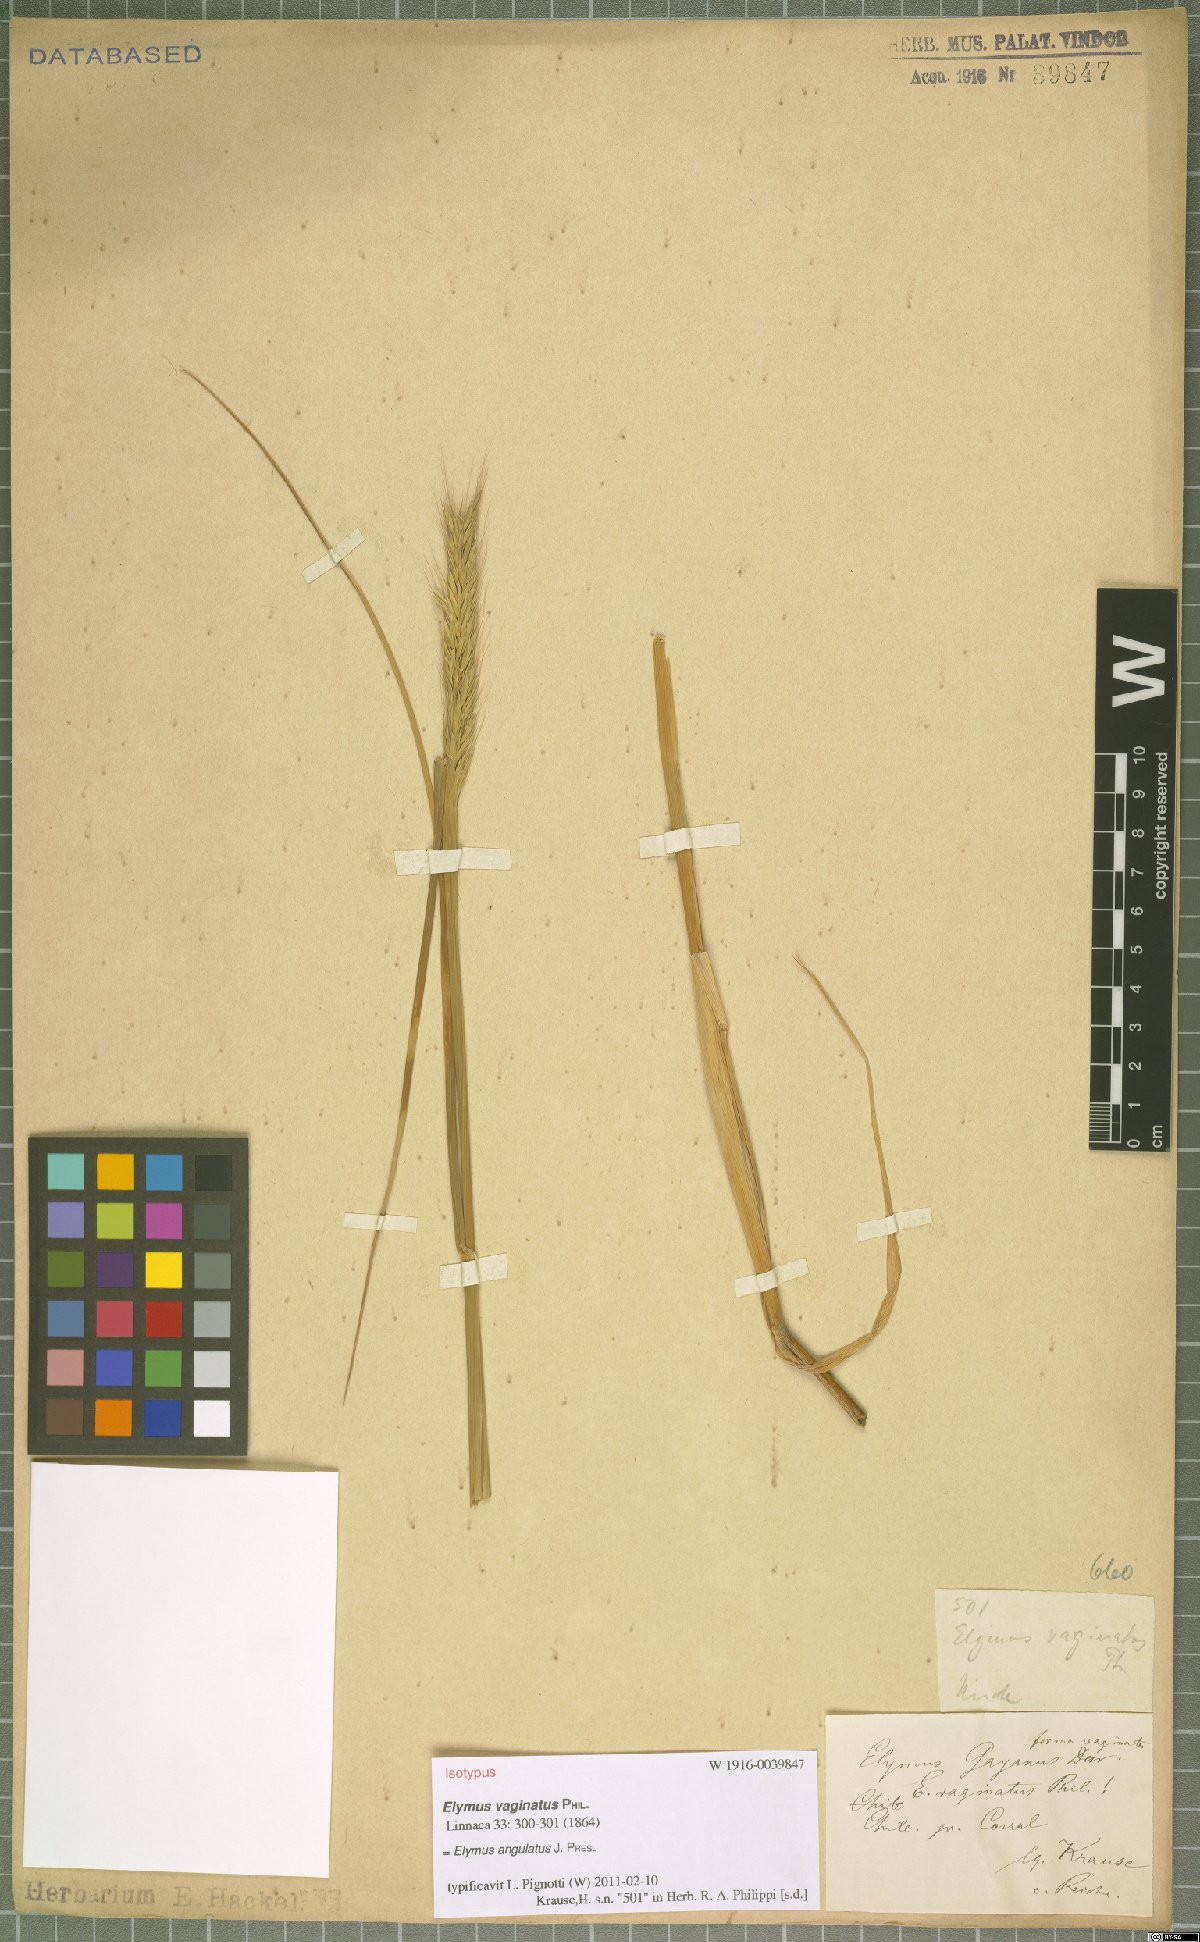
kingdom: Plantae
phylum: Tracheophyta
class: Liliopsida
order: Poales
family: Poaceae
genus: Elymus
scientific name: Elymus angulatus
